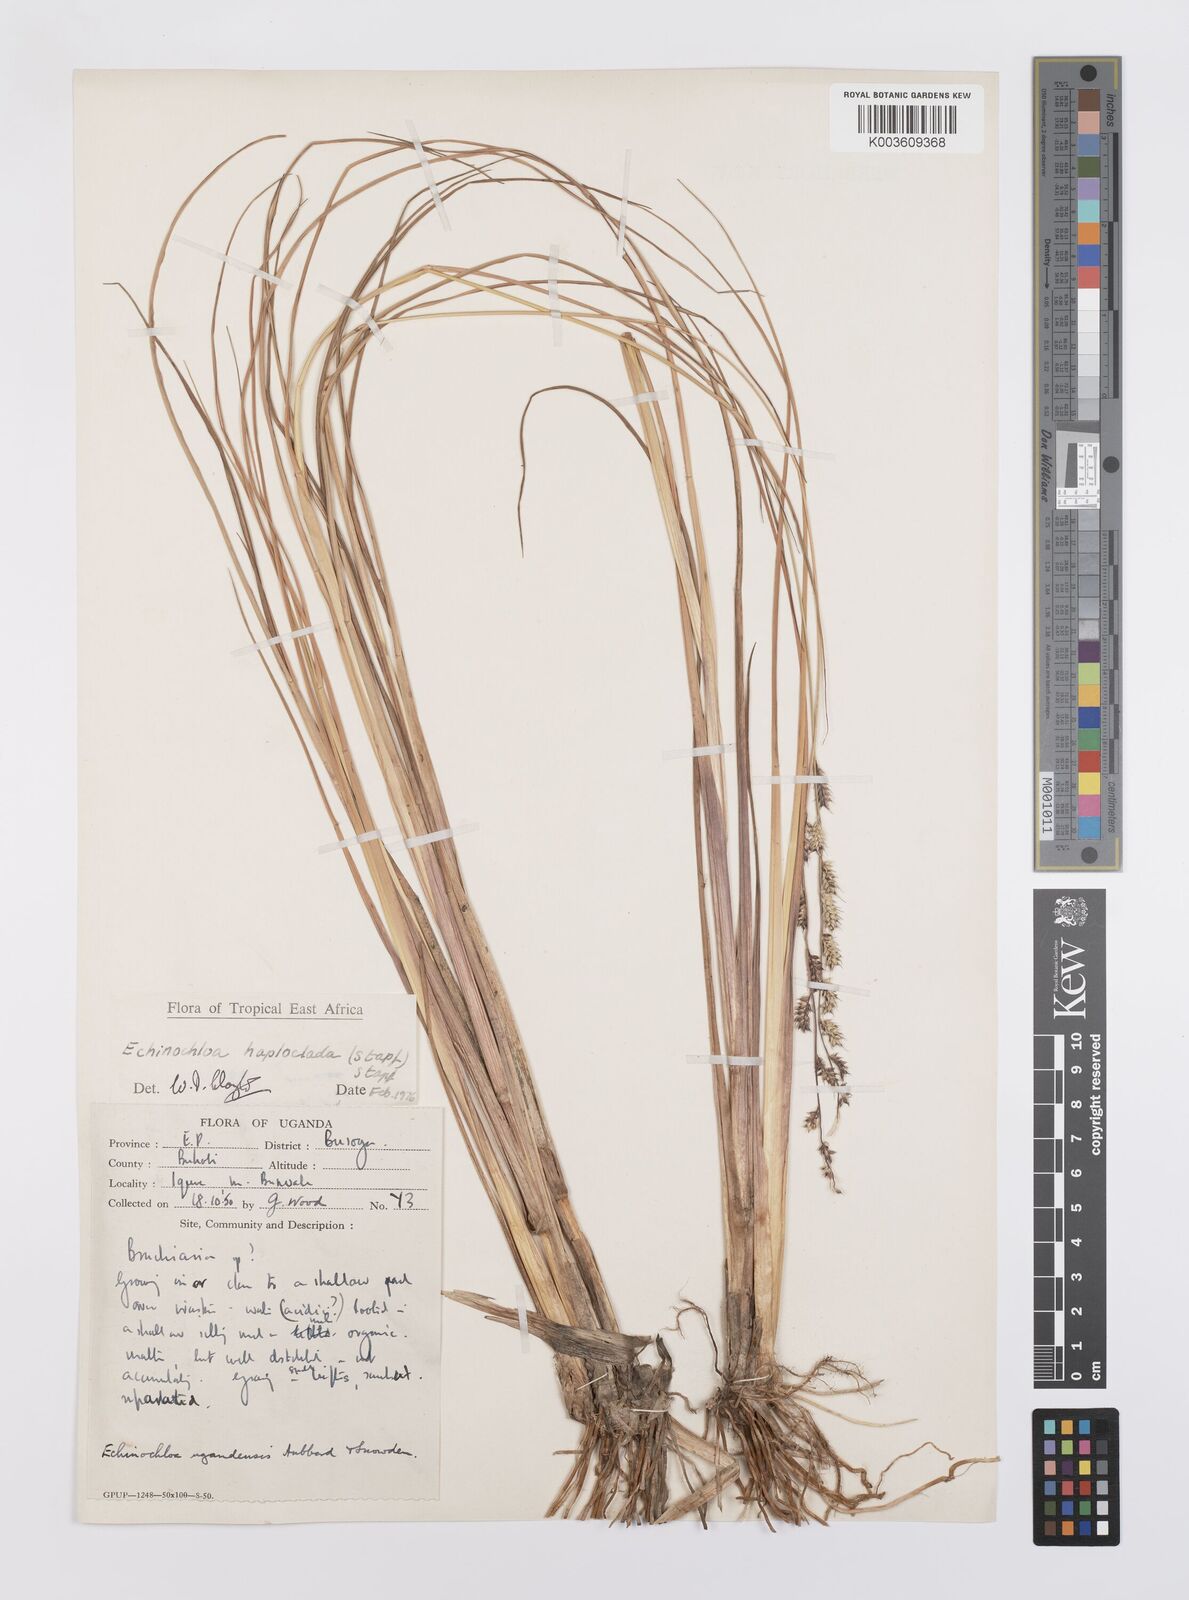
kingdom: Plantae
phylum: Tracheophyta
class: Liliopsida
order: Poales
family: Poaceae
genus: Echinochloa
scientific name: Echinochloa haploclada
